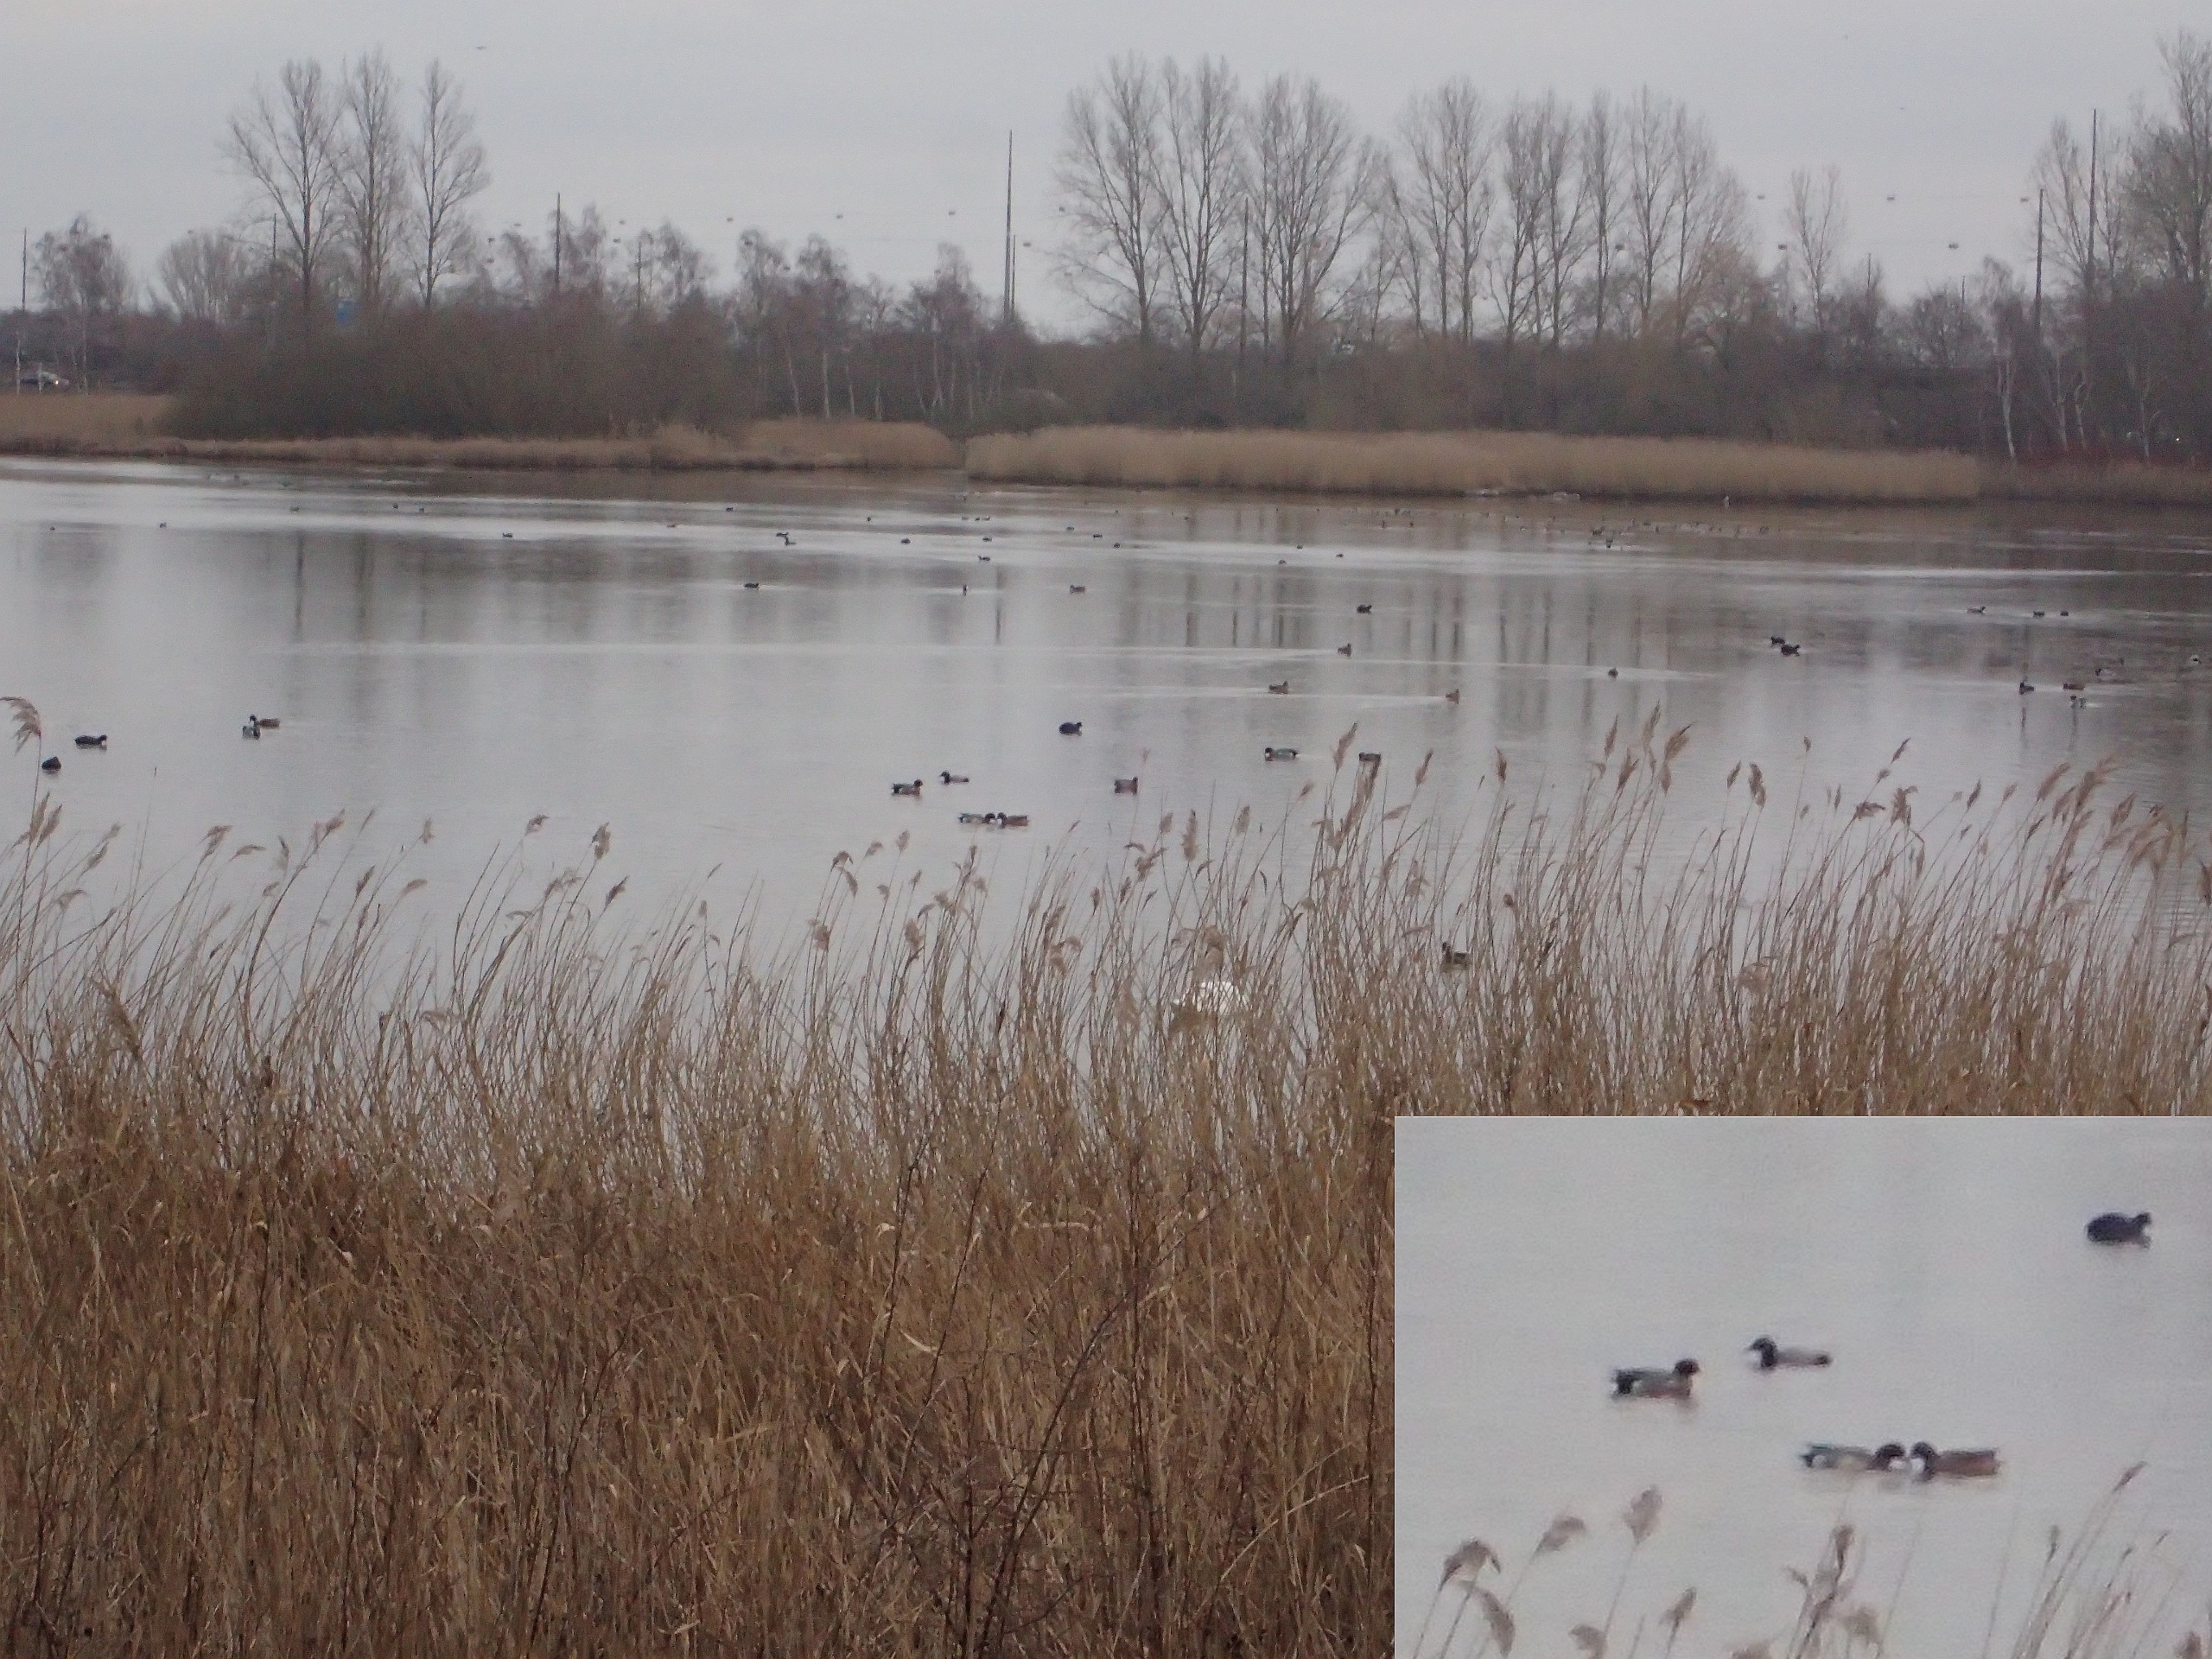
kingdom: Animalia
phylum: Chordata
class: Aves
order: Anseriformes
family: Anatidae
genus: Mareca
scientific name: Mareca penelope
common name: Pibeand
